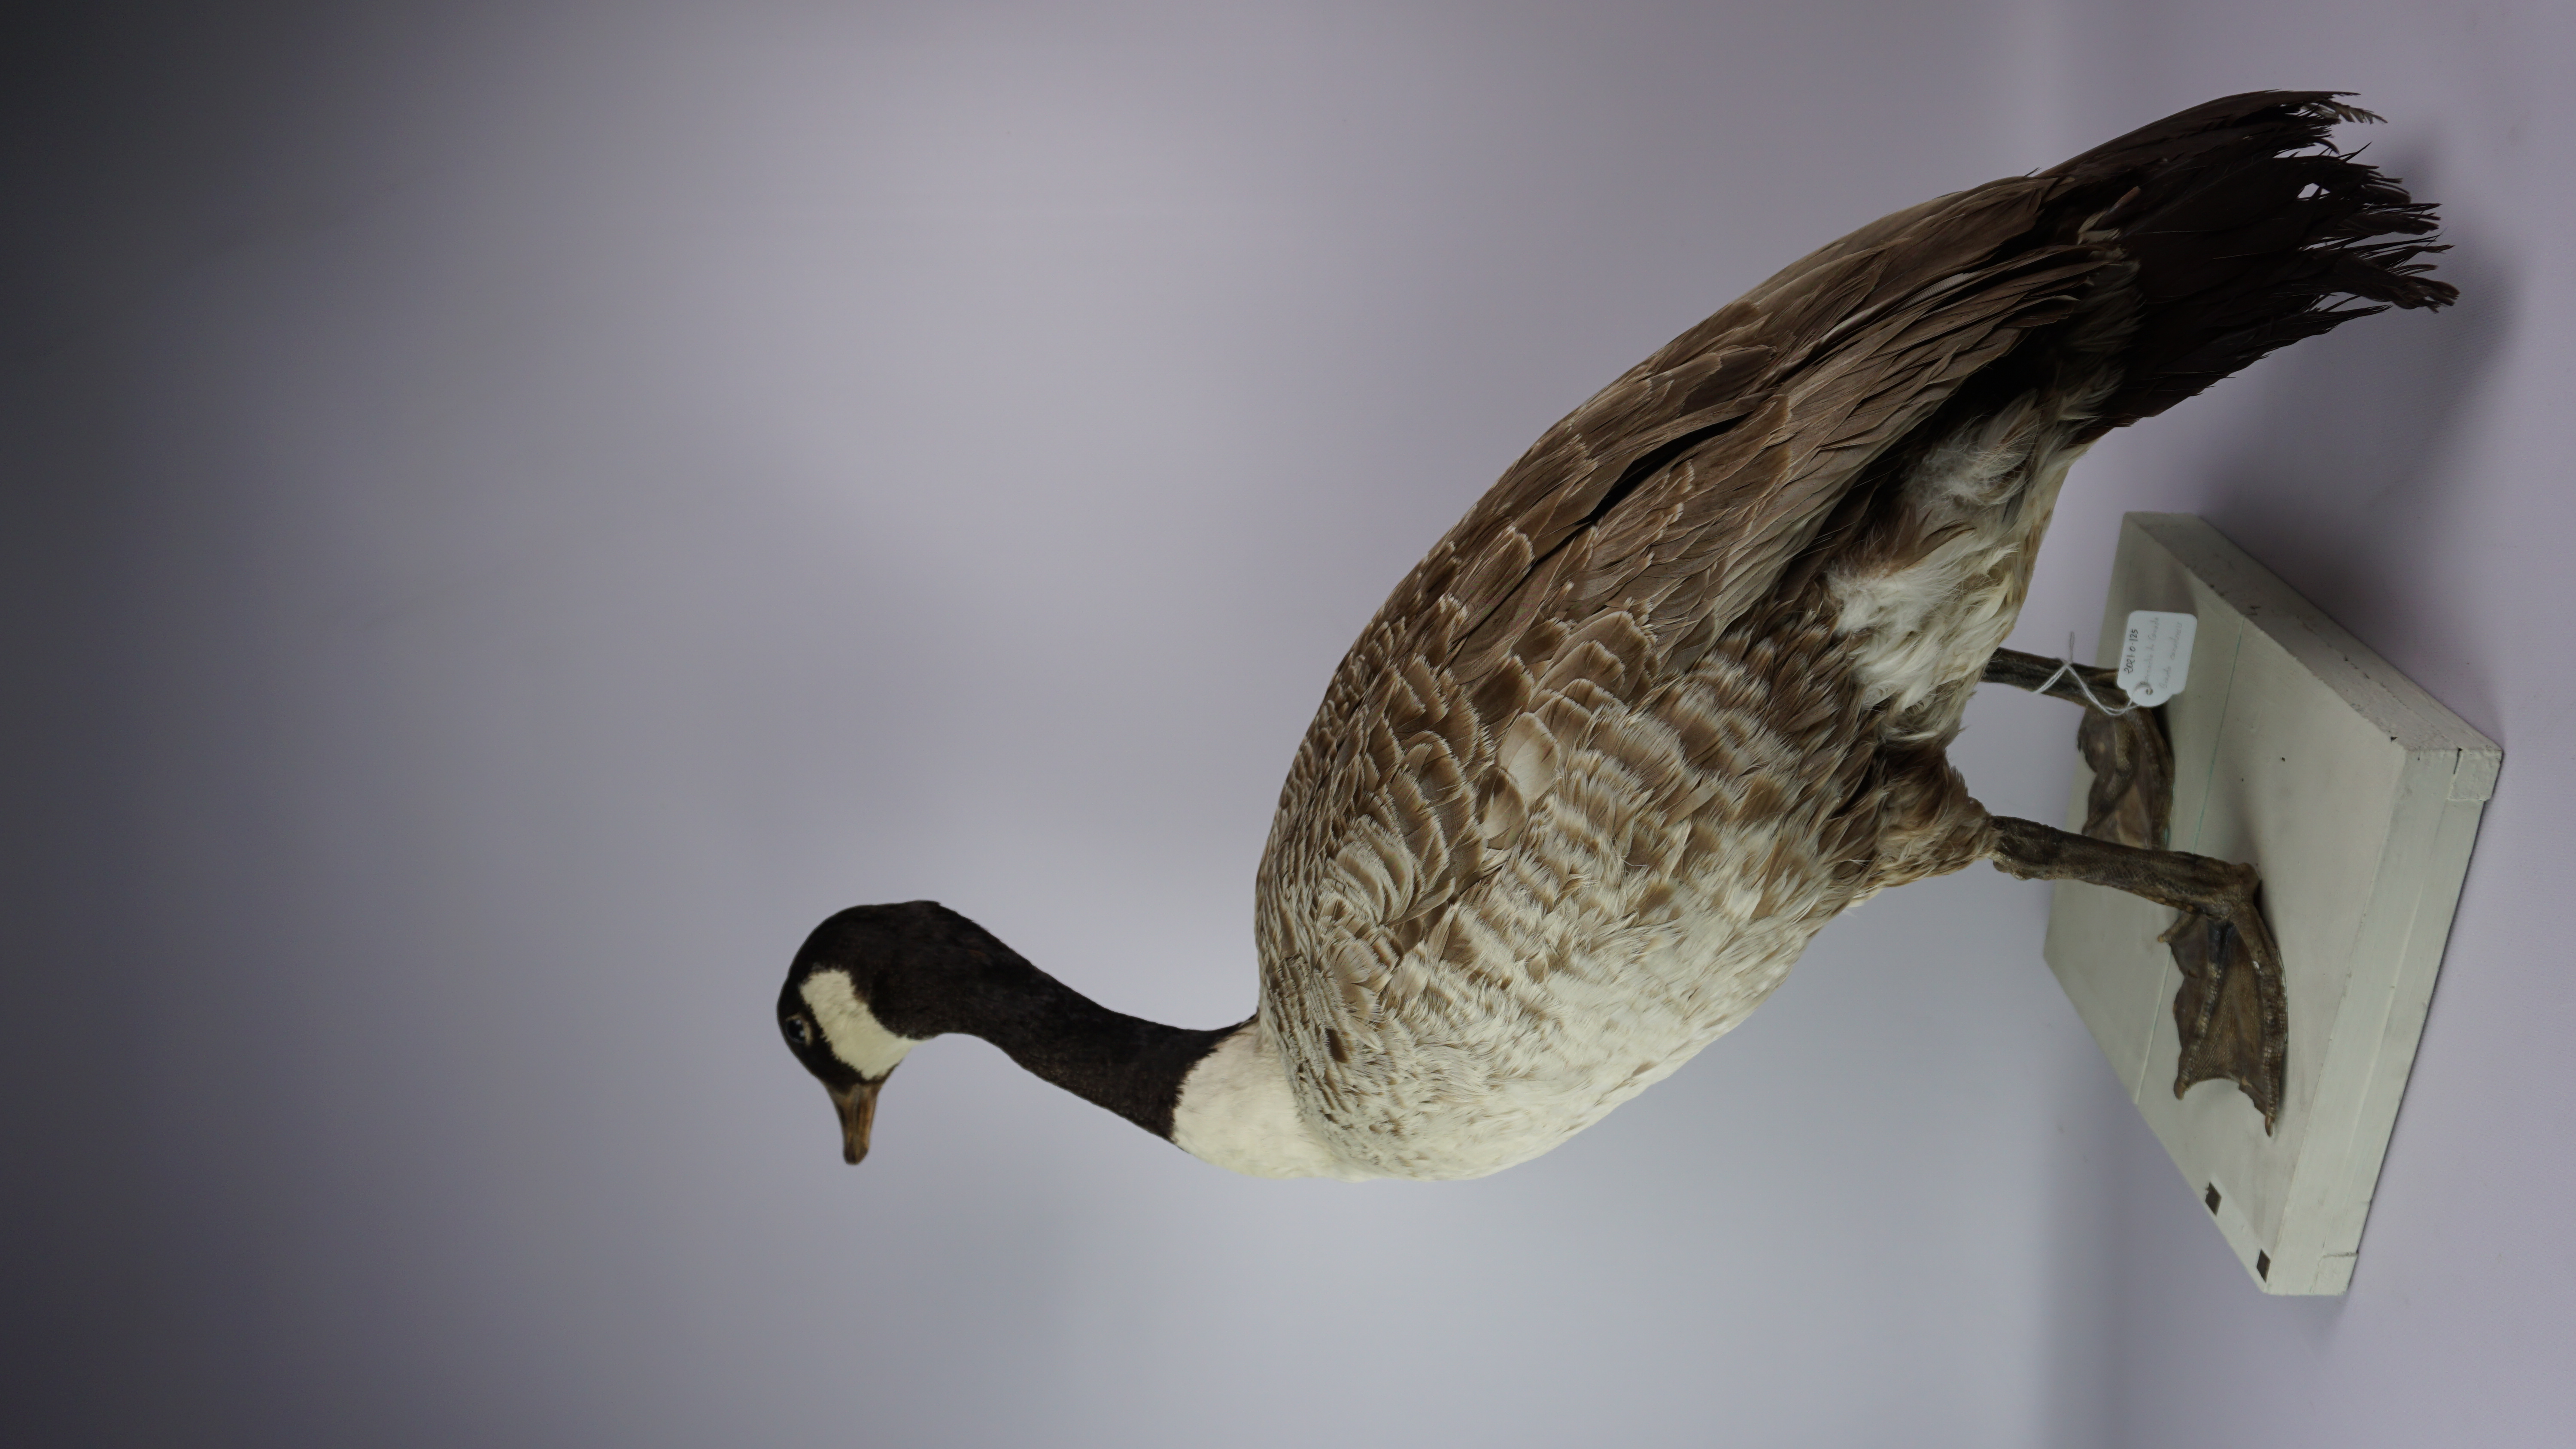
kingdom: Animalia
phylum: Chordata
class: Aves
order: Anseriformes
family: Anatidae
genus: Branta
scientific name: Branta canadensis
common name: Canada goose
